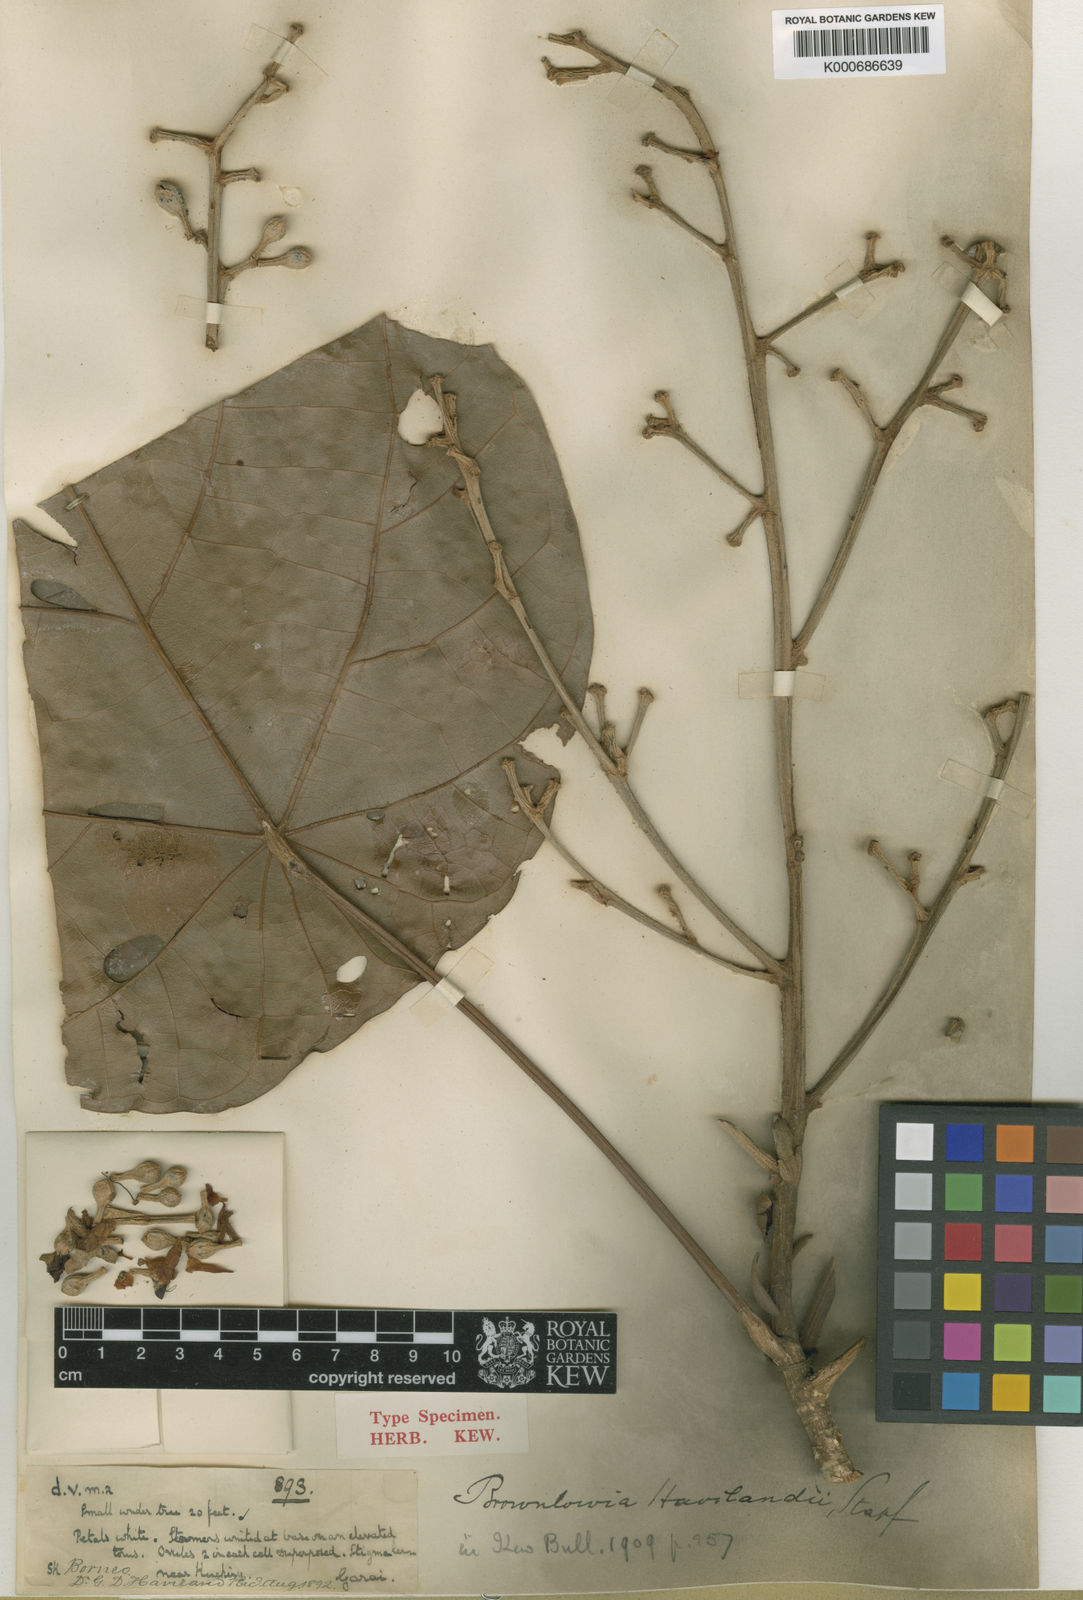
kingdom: Plantae
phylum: Tracheophyta
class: Magnoliopsida
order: Malvales
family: Malvaceae
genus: Brownlowia
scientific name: Brownlowia havilandii
